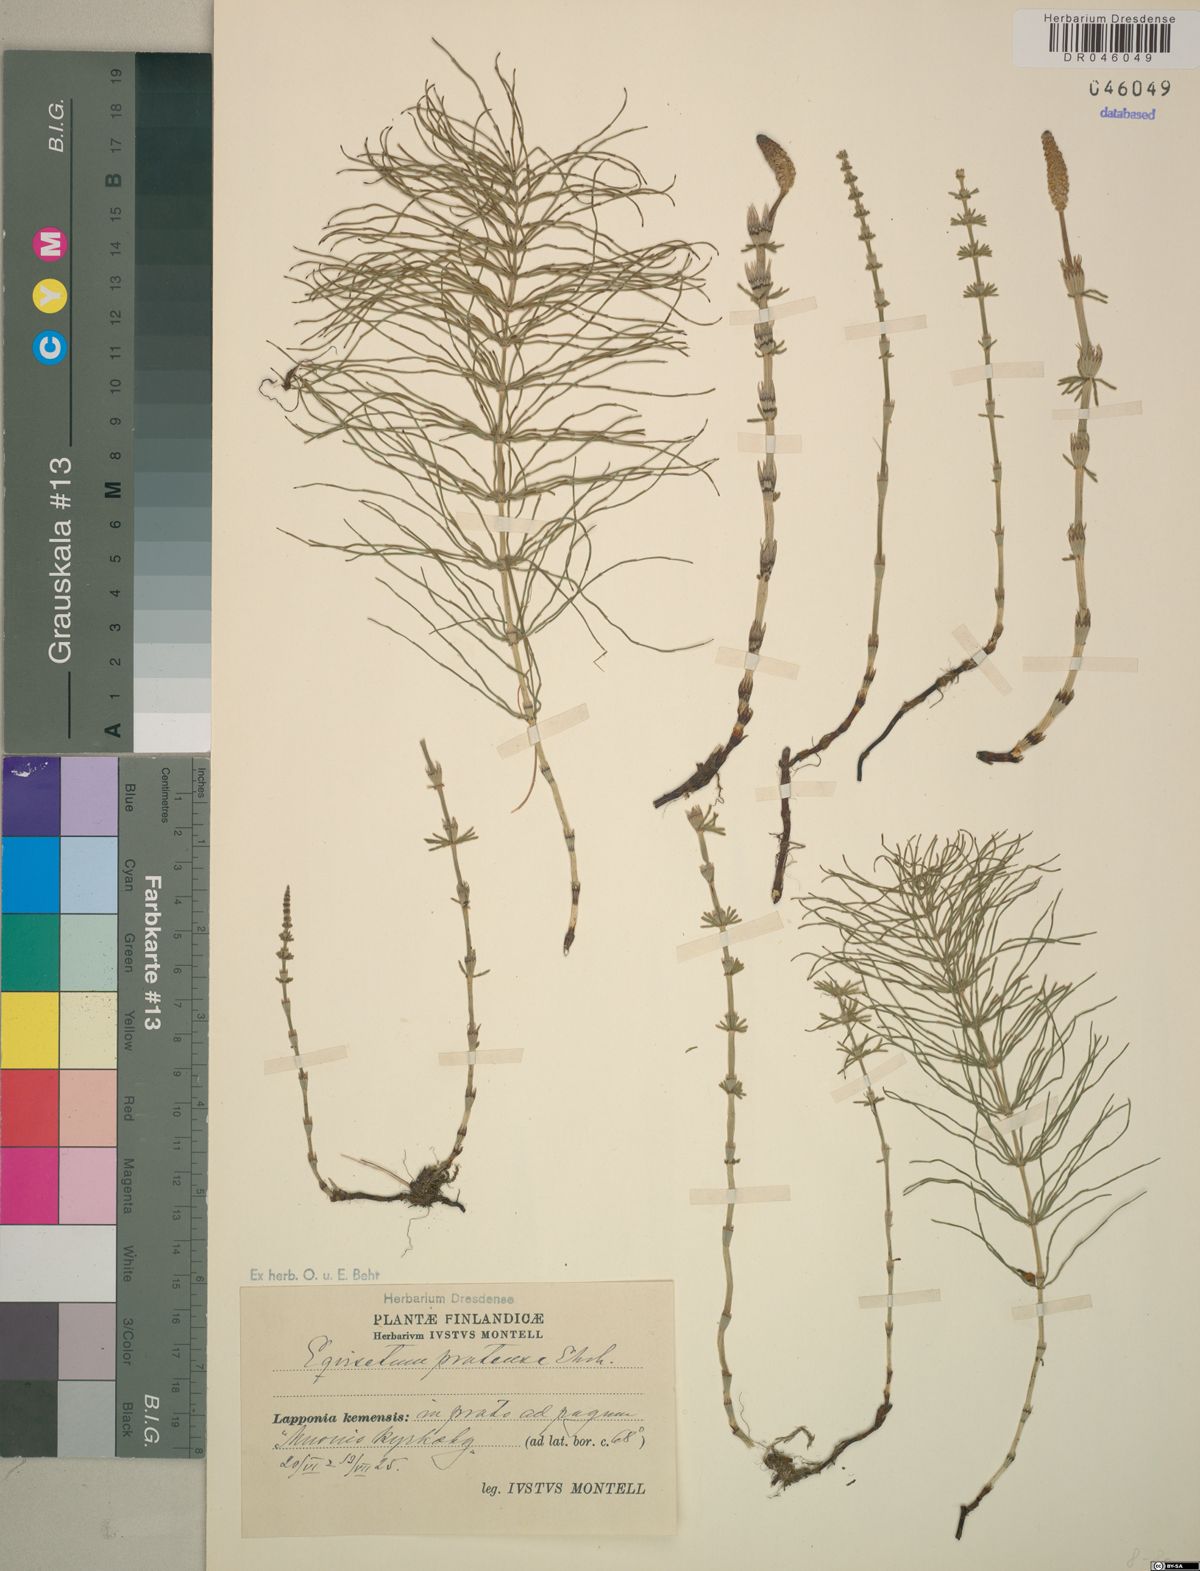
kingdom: Plantae
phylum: Tracheophyta
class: Polypodiopsida
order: Equisetales
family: Equisetaceae
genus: Equisetum
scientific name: Equisetum pratense
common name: Meadow horsetail
